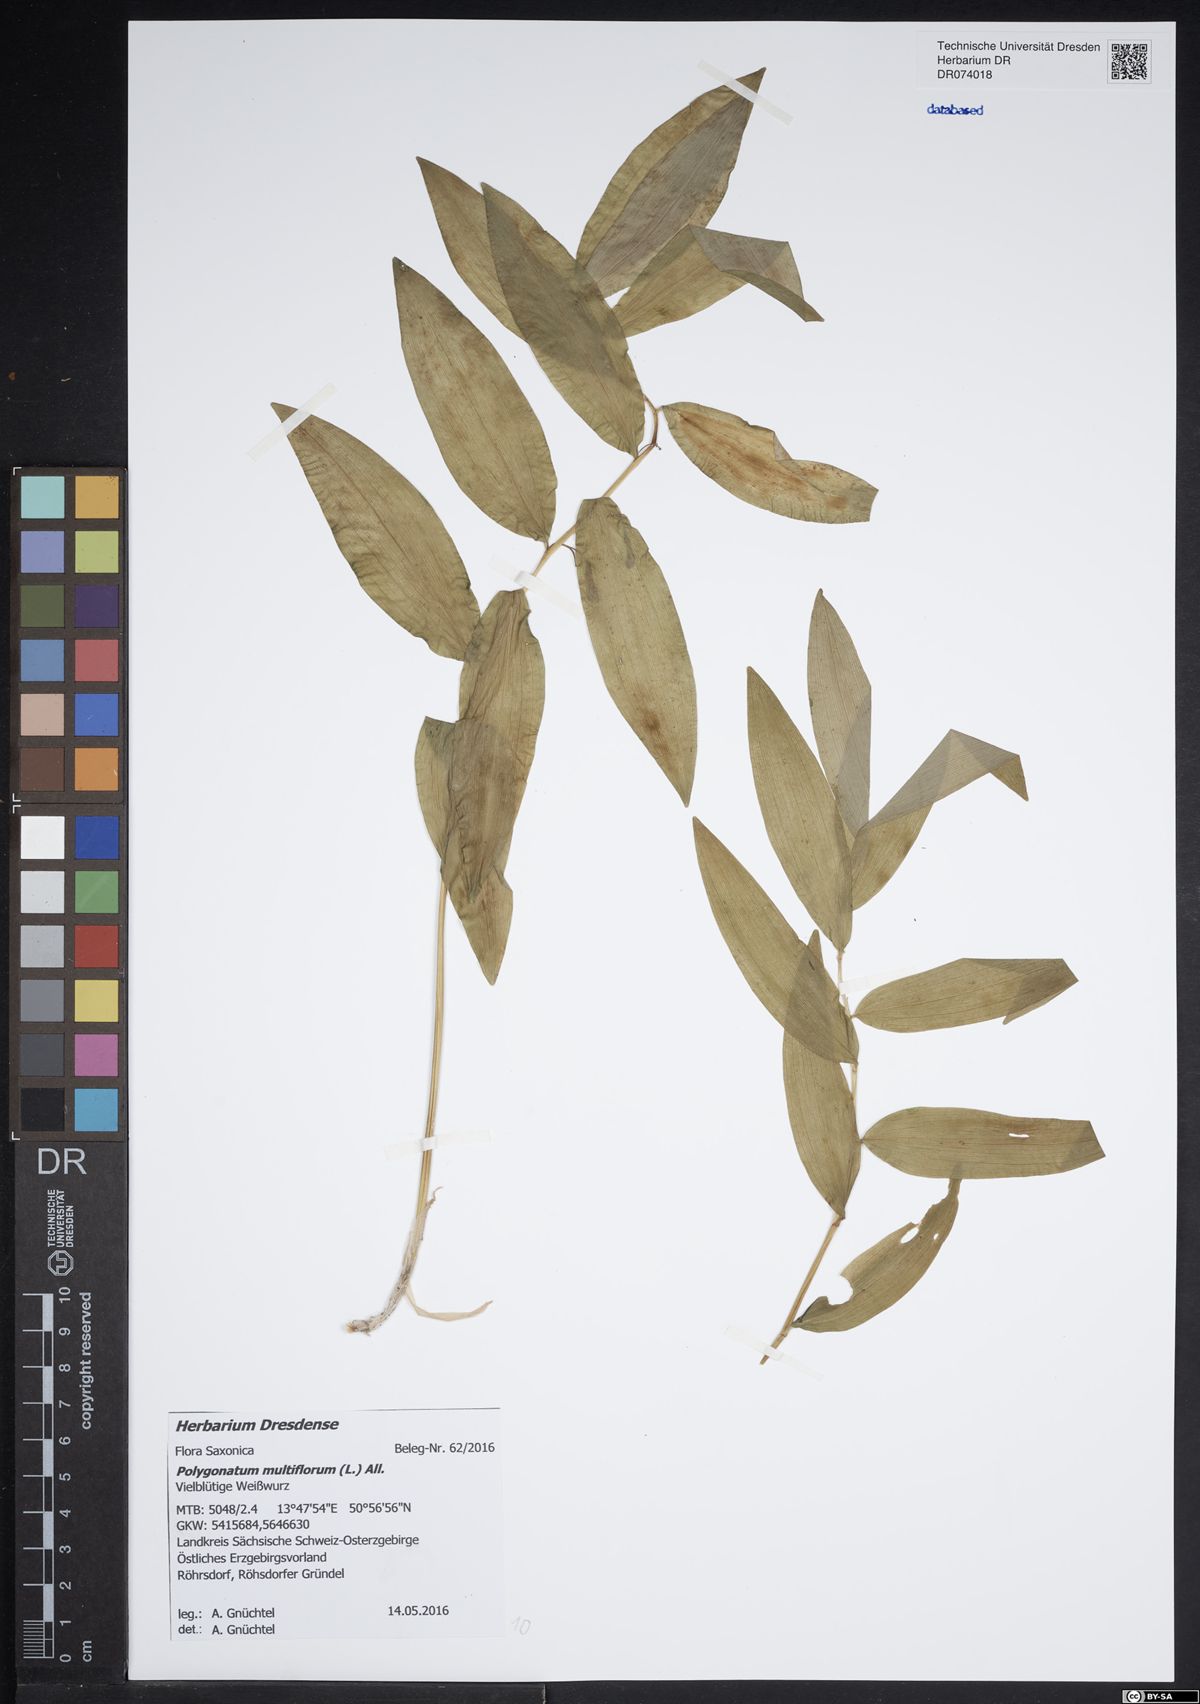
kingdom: Plantae
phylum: Tracheophyta
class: Liliopsida
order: Asparagales
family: Asparagaceae
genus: Polygonatum
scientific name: Polygonatum multiflorum
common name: Solomon's-seal
